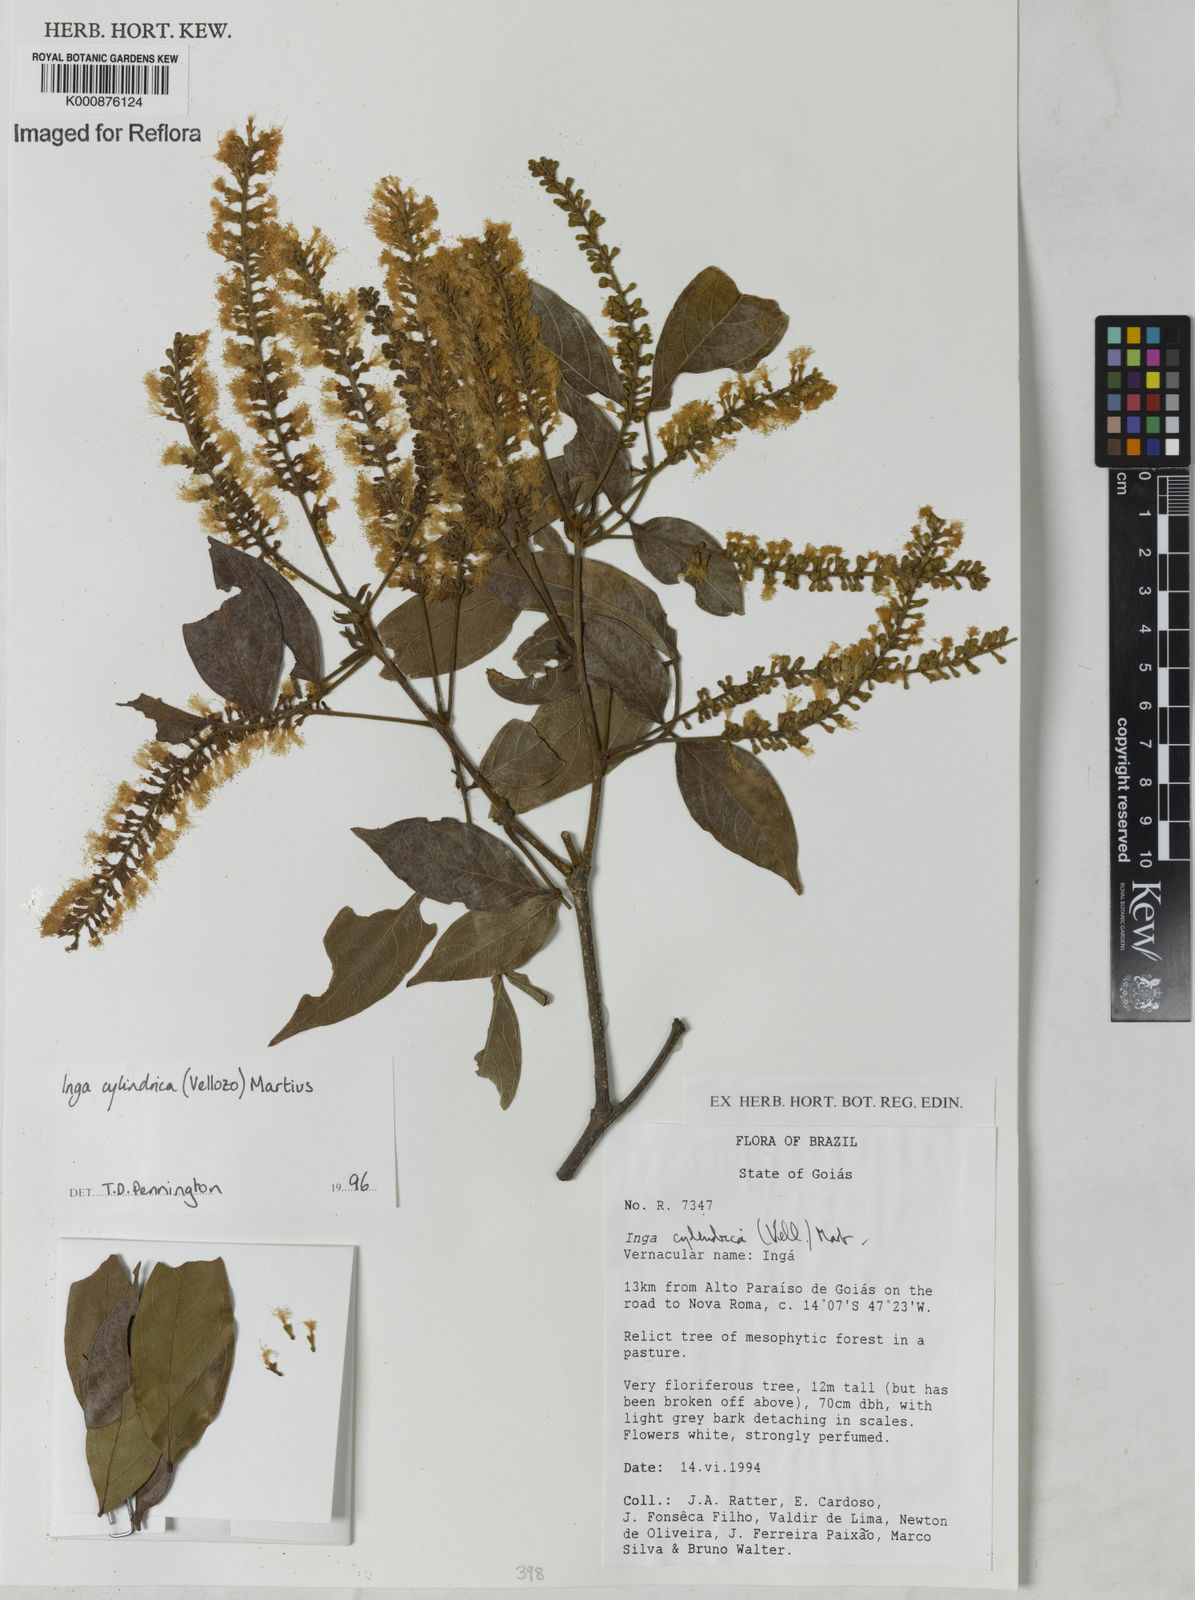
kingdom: Plantae
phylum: Tracheophyta
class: Magnoliopsida
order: Fabales
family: Fabaceae
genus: Inga
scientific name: Inga cylindrica
